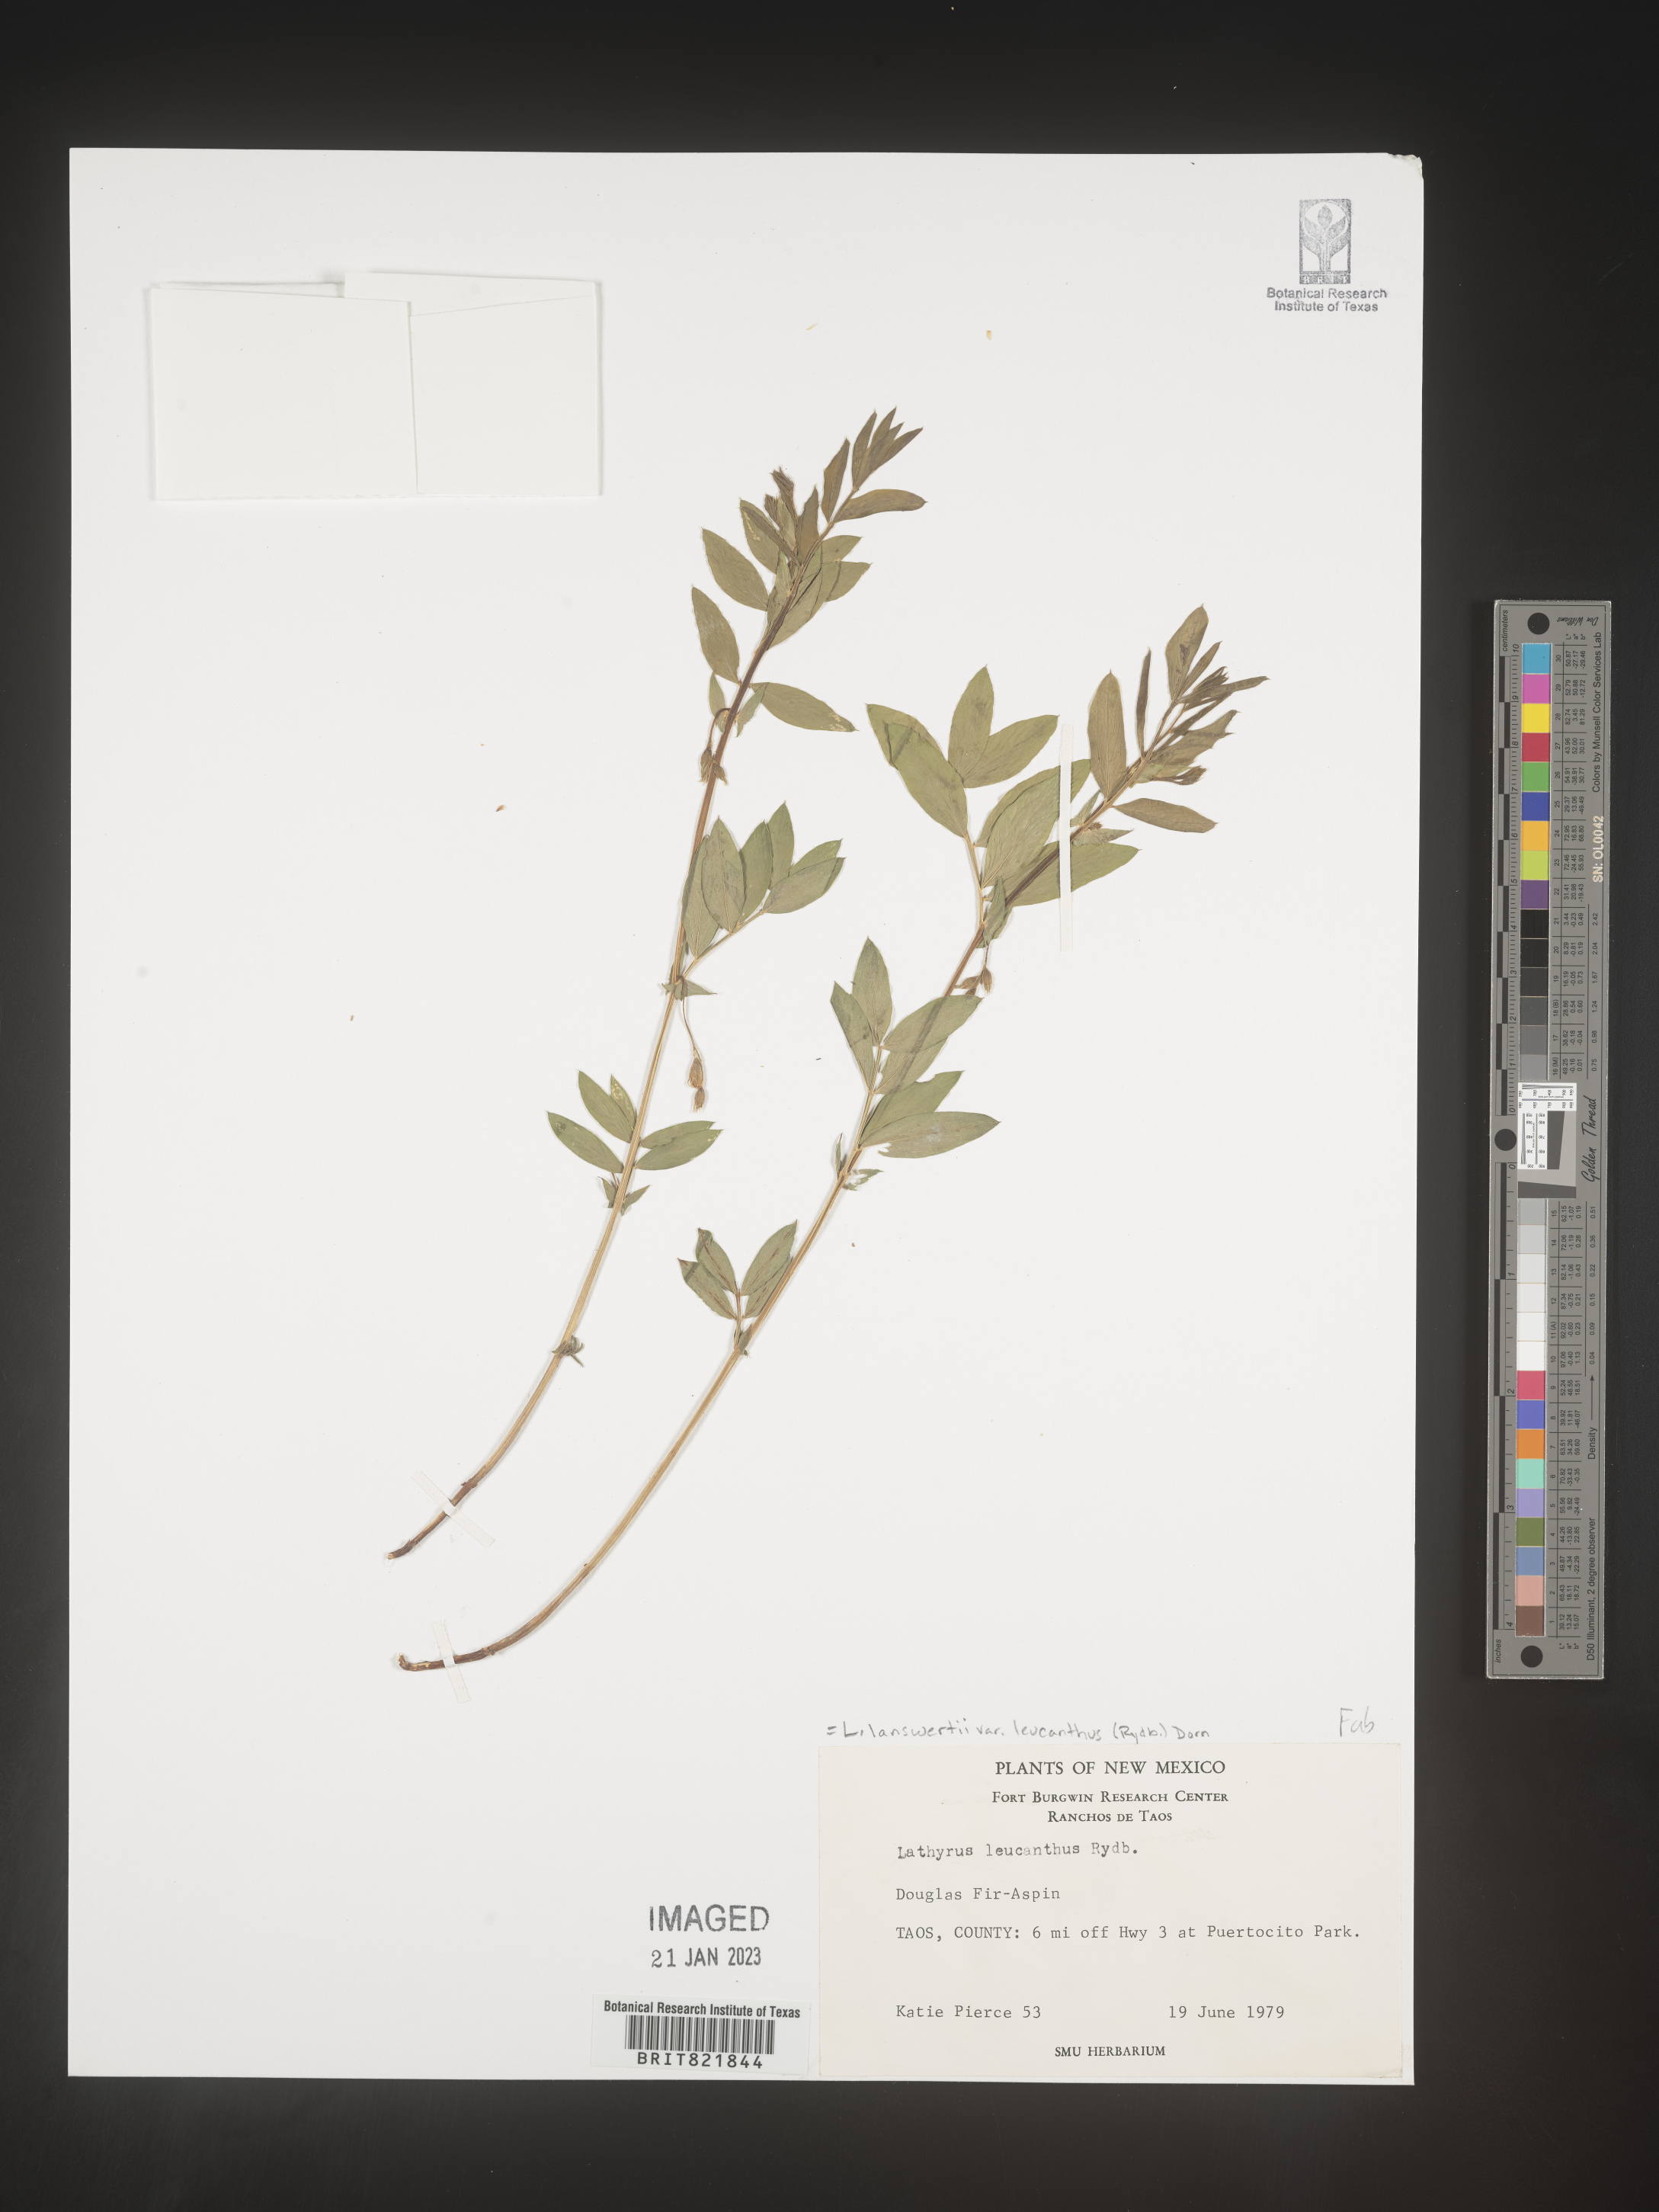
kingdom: Plantae
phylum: Tracheophyta
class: Magnoliopsida
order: Fabales
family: Fabaceae
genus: Lathyrus
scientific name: Lathyrus
